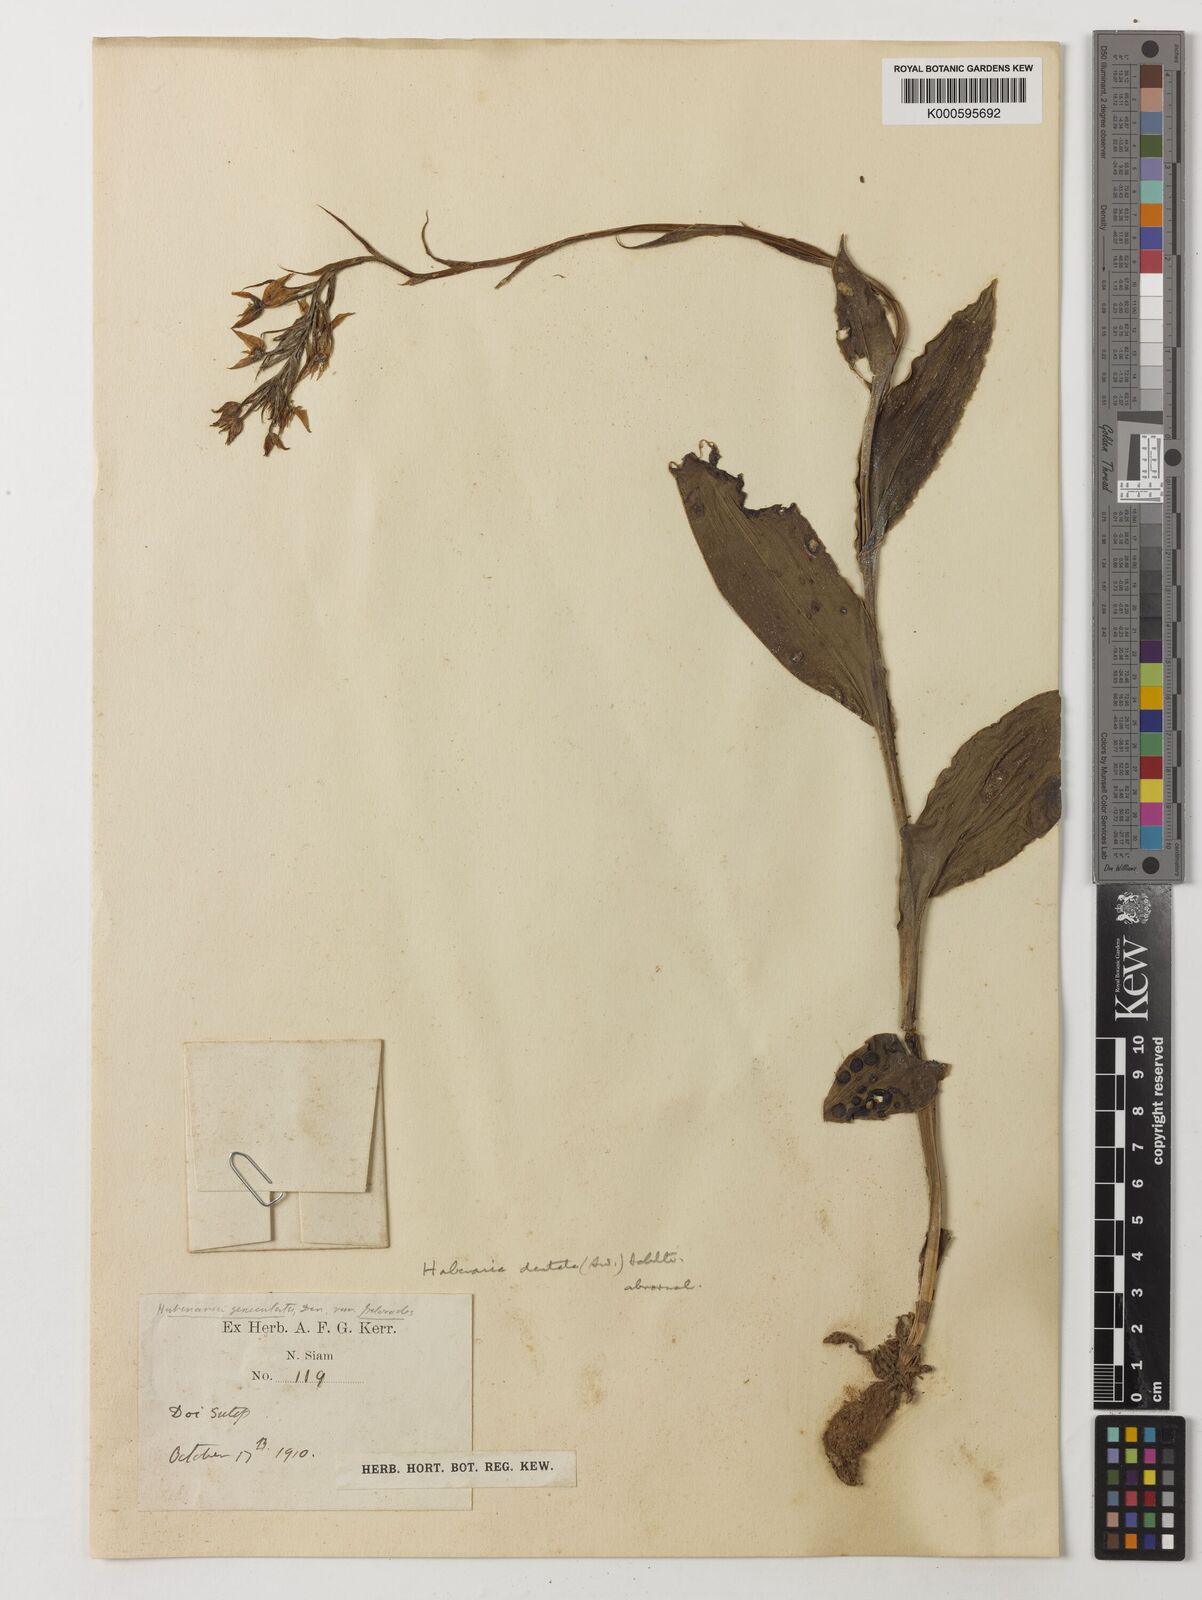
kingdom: Plantae
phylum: Tracheophyta
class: Liliopsida
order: Asparagales
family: Orchidaceae
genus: Habenaria
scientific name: Habenaria dentata
